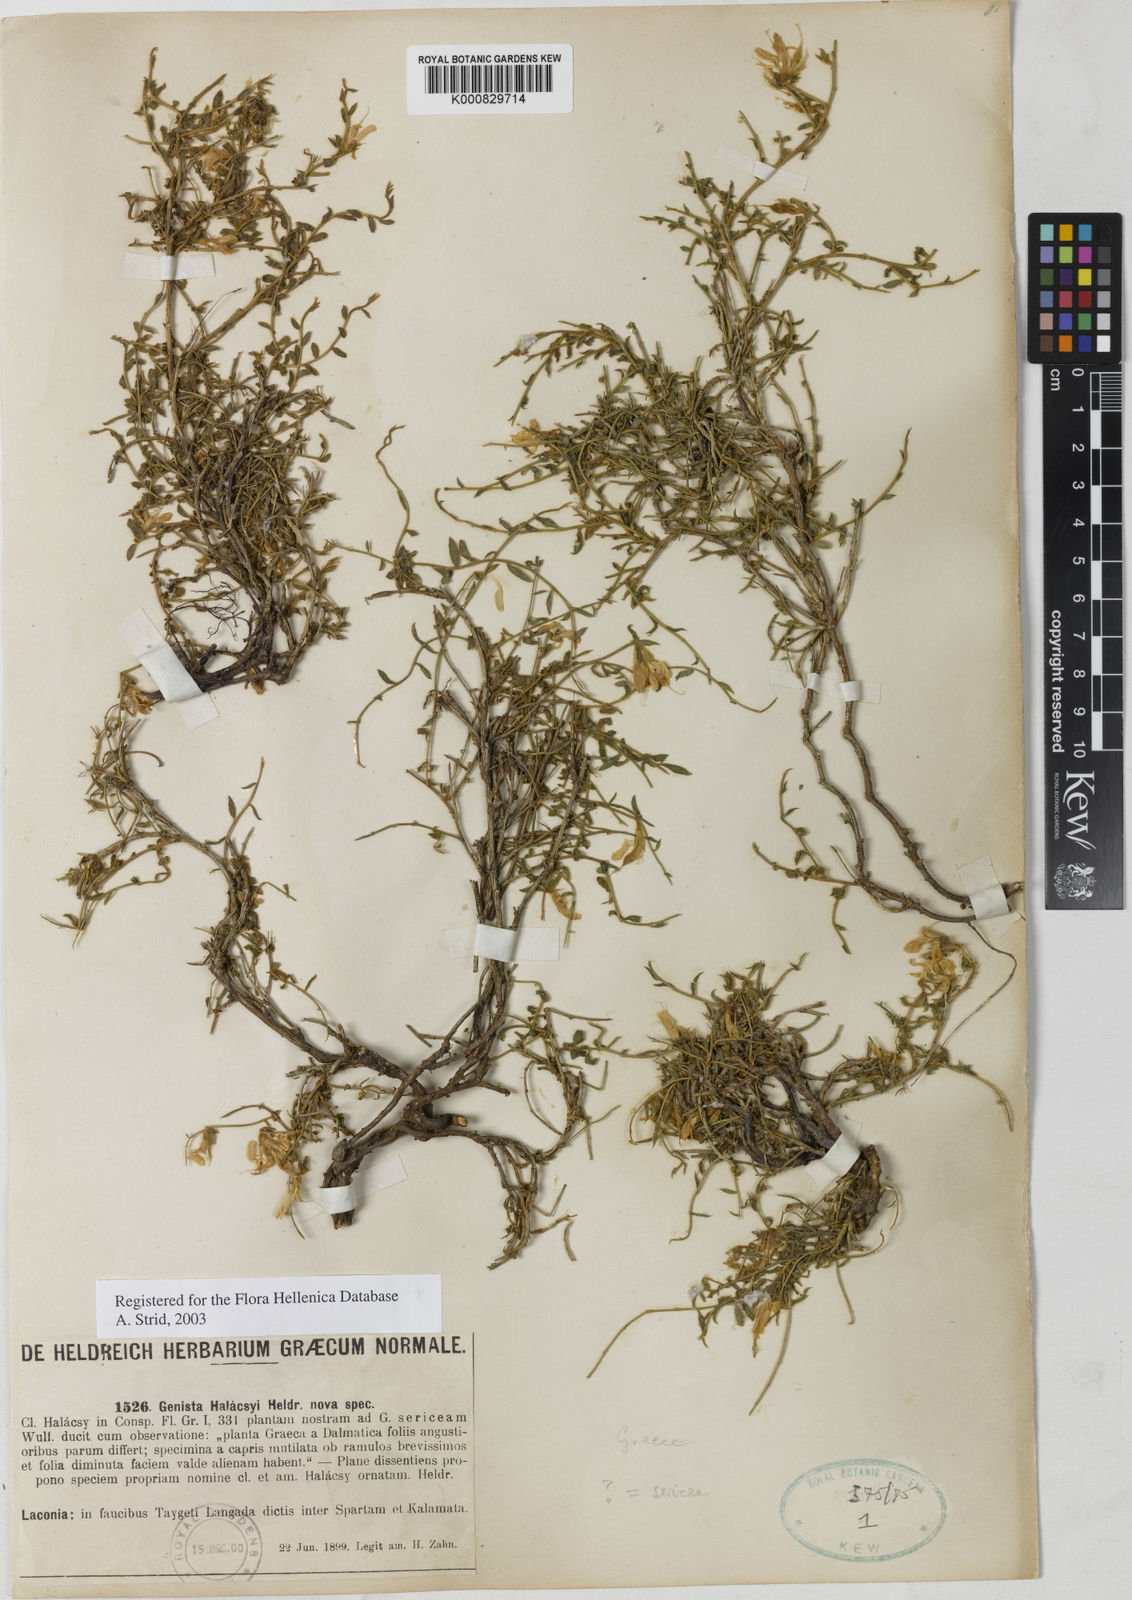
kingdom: Plantae
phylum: Tracheophyta
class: Magnoliopsida
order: Fabales
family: Fabaceae
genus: Genista
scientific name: Genista
